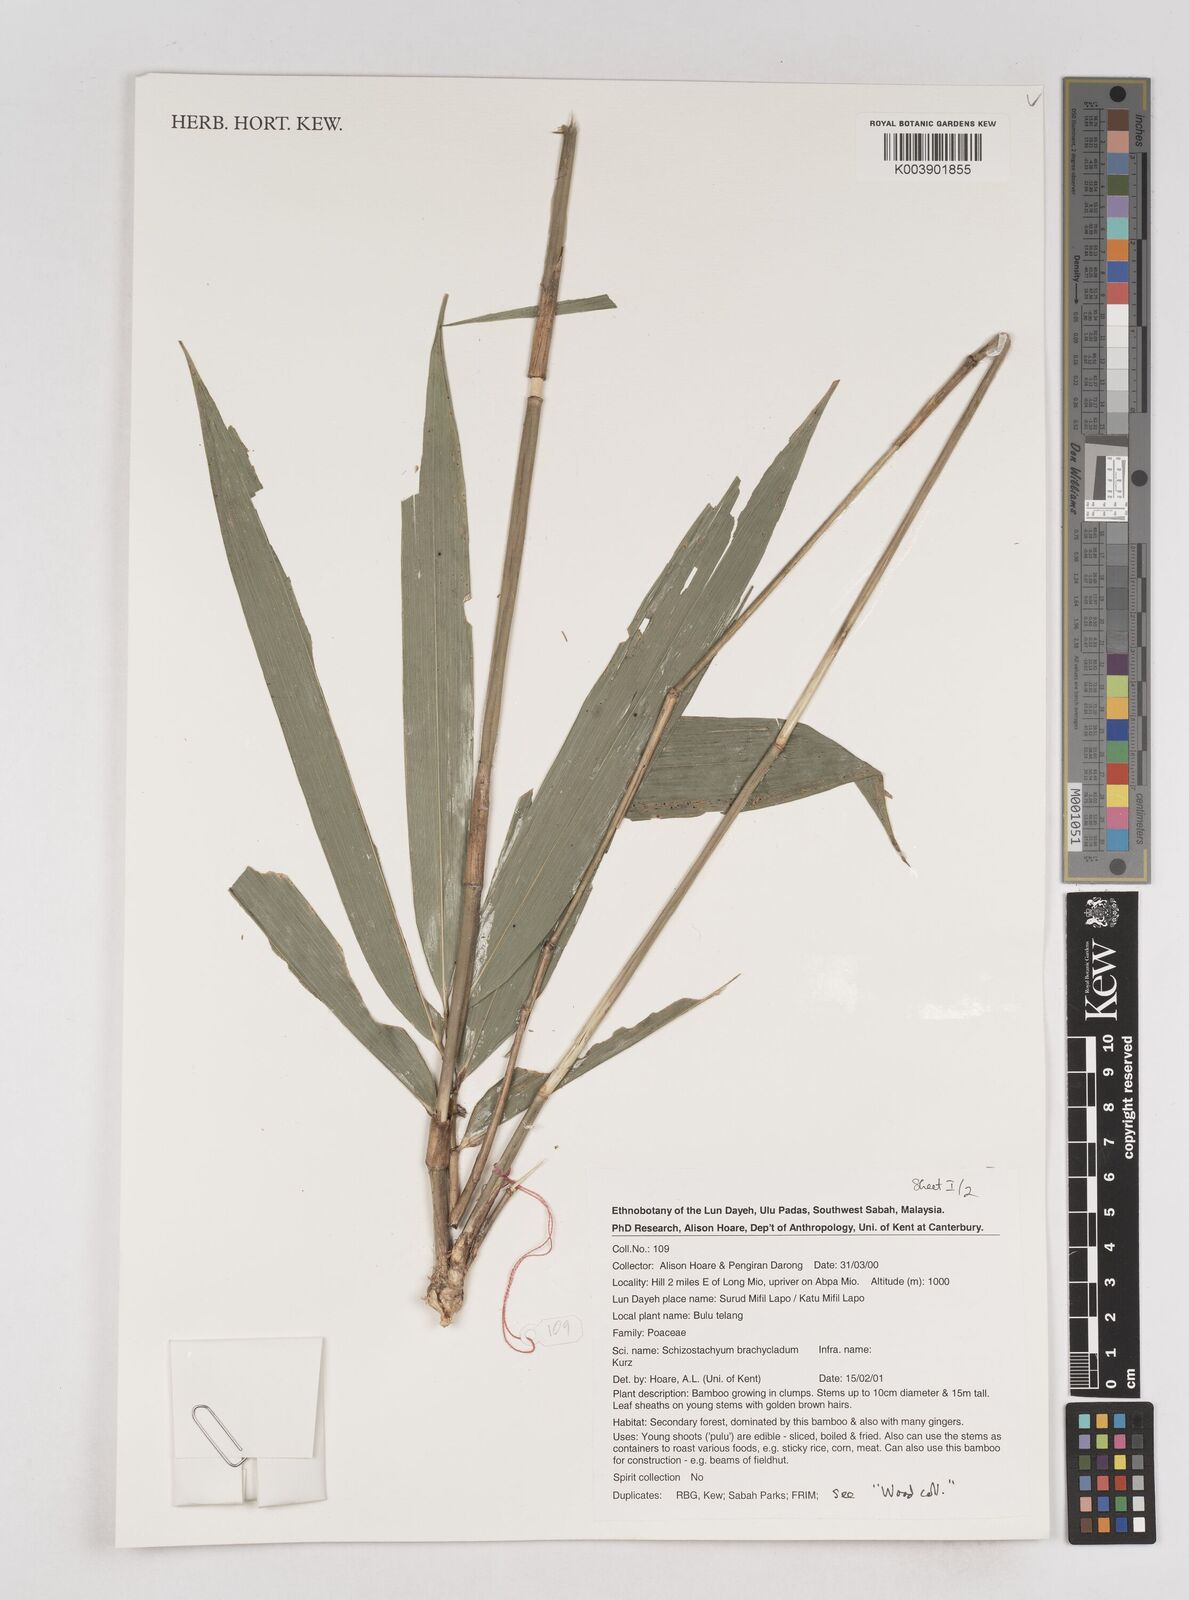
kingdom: Plantae
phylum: Tracheophyta
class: Liliopsida
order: Poales
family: Poaceae
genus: Schizostachyum
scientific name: Schizostachyum brachycladum
